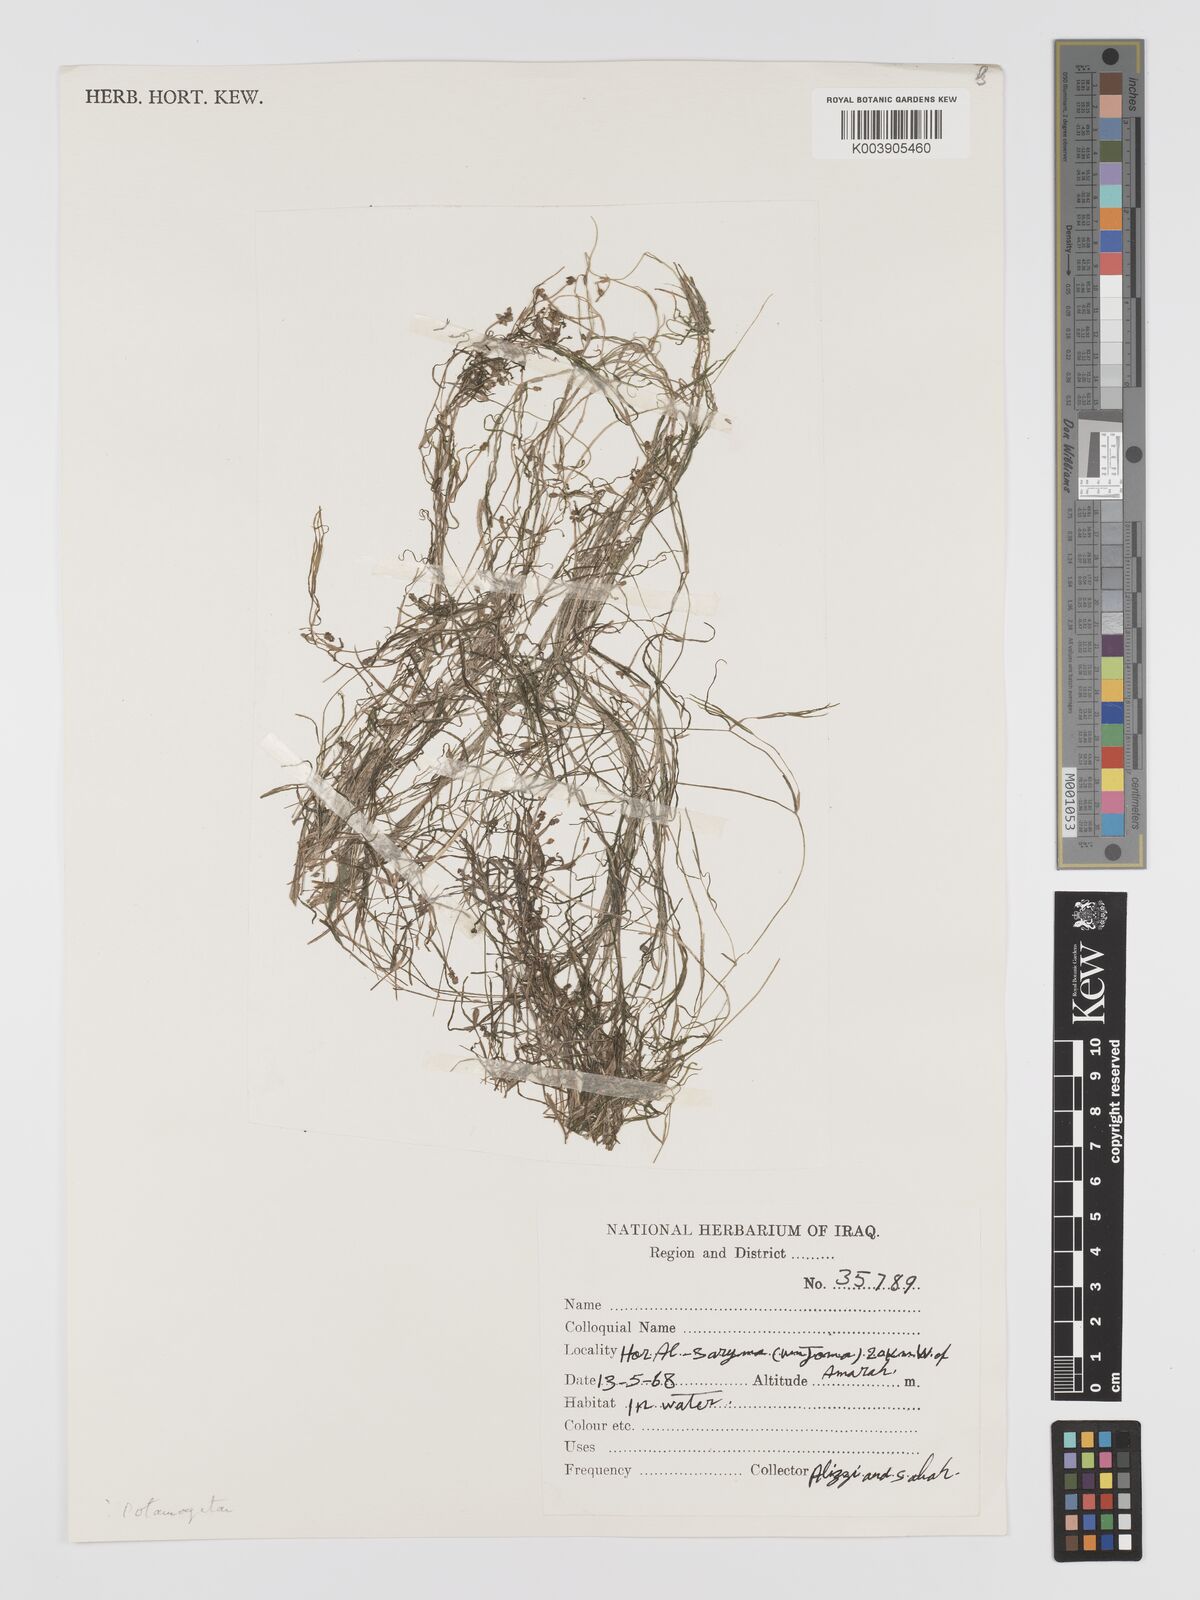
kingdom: Plantae
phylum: Tracheophyta
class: Liliopsida
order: Alismatales
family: Potamogetonaceae
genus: Potamogeton
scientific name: Potamogeton
